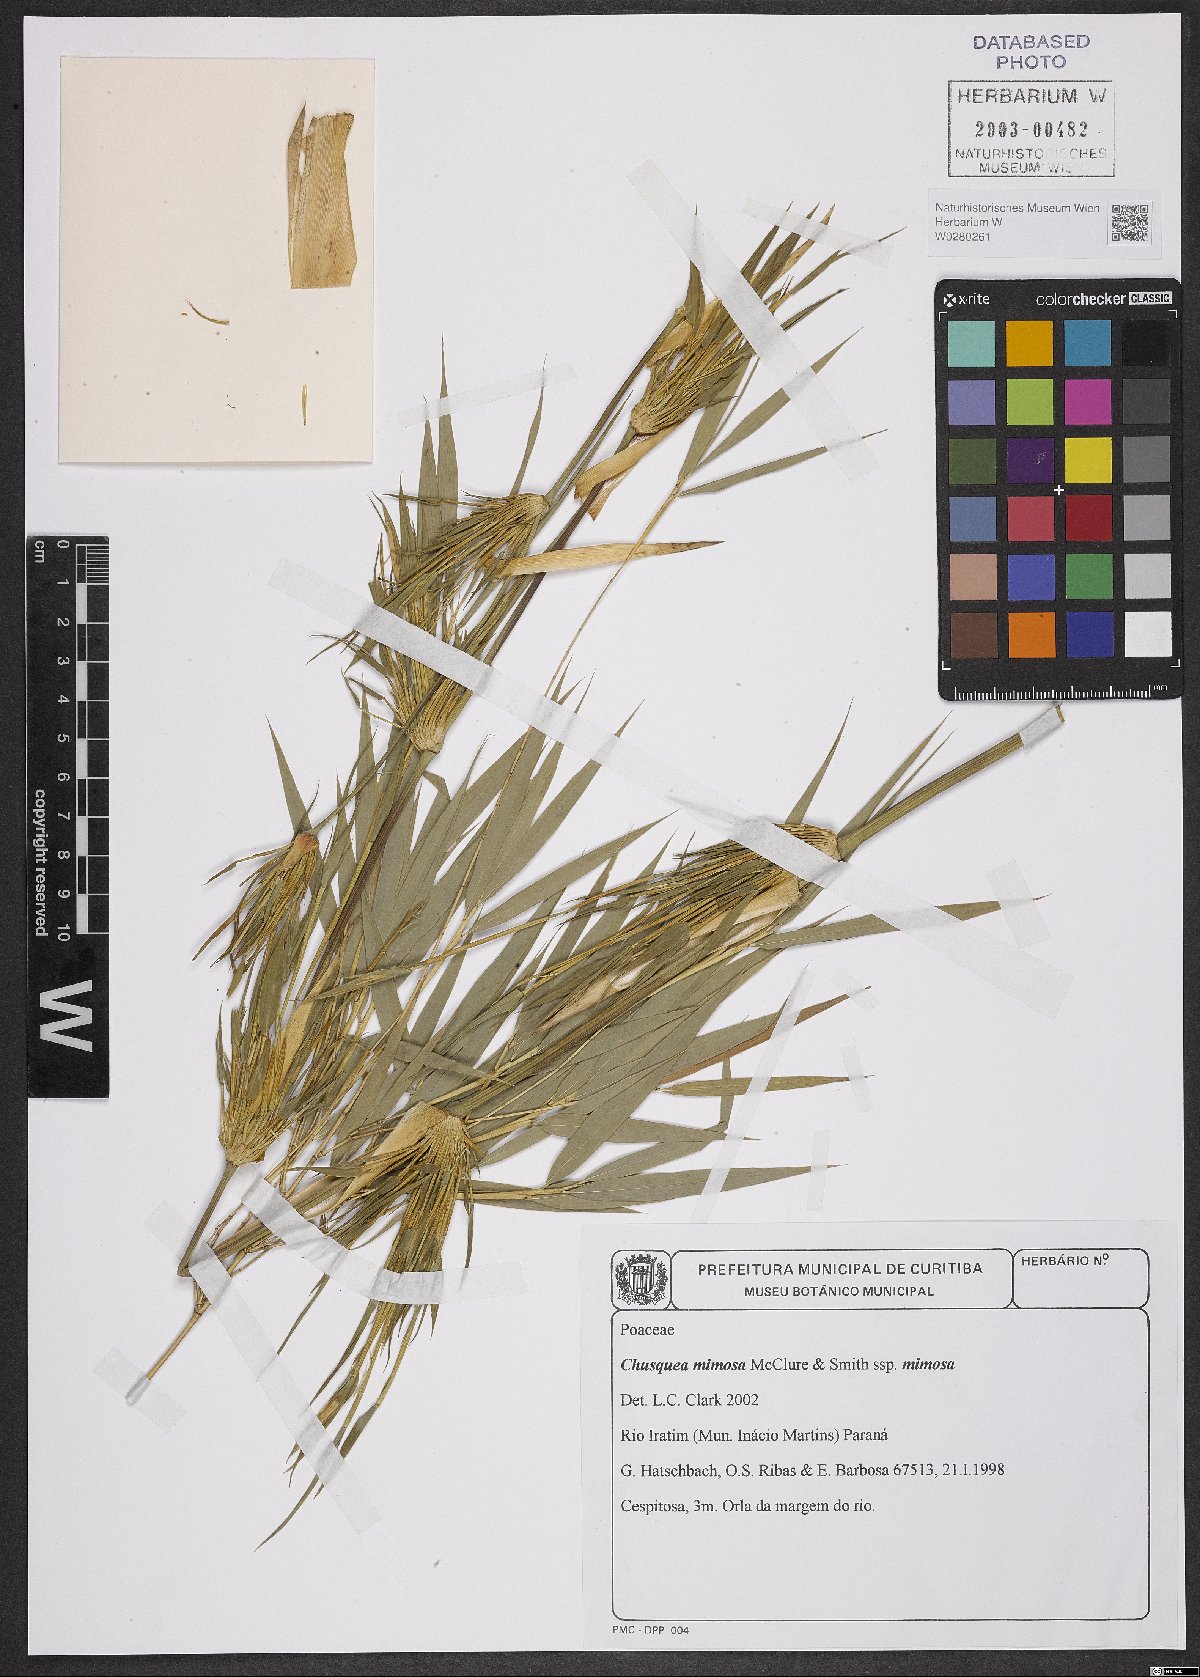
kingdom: Plantae
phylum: Tracheophyta
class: Liliopsida
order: Poales
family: Poaceae
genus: Chusquea
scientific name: Chusquea mimosa
